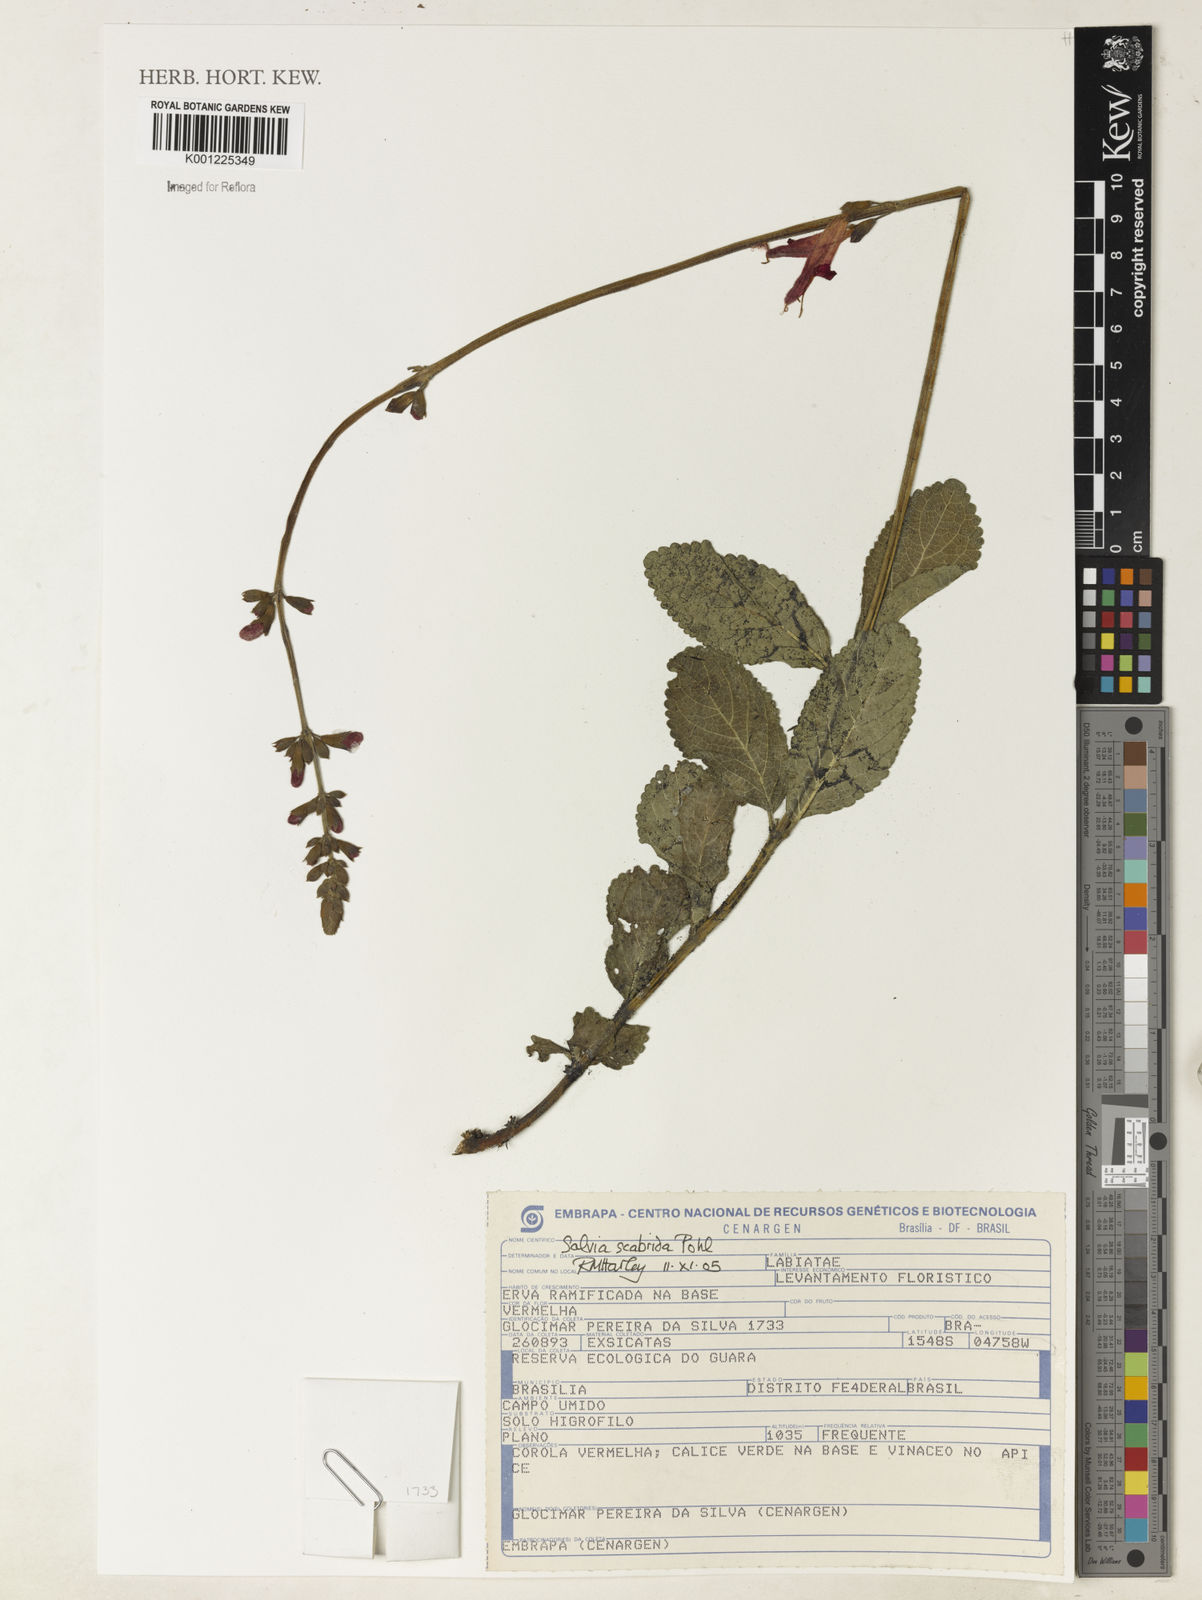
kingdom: Plantae
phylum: Tracheophyta
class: Magnoliopsida
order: Lamiales
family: Lamiaceae
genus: Salvia
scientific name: Salvia scabrida
